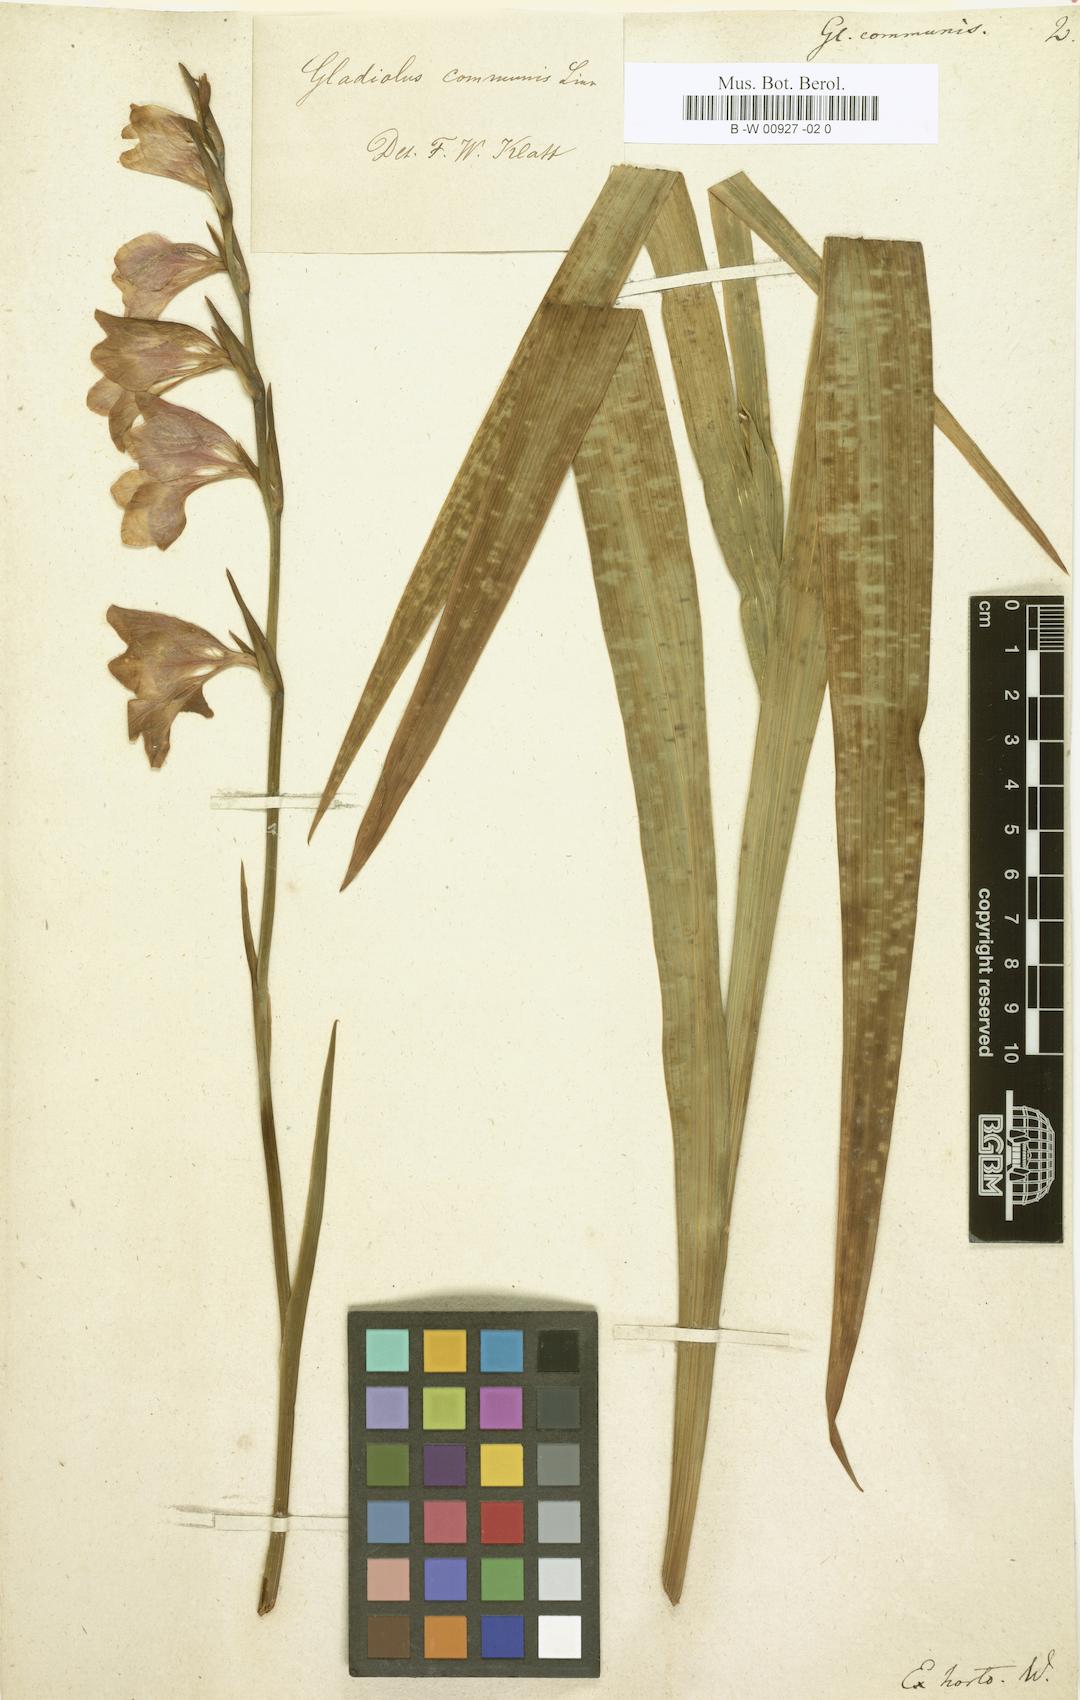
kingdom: Plantae
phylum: Tracheophyta
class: Liliopsida
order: Asparagales
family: Iridaceae
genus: Gladiolus
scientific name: Gladiolus communis
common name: Eastern gladiolus
